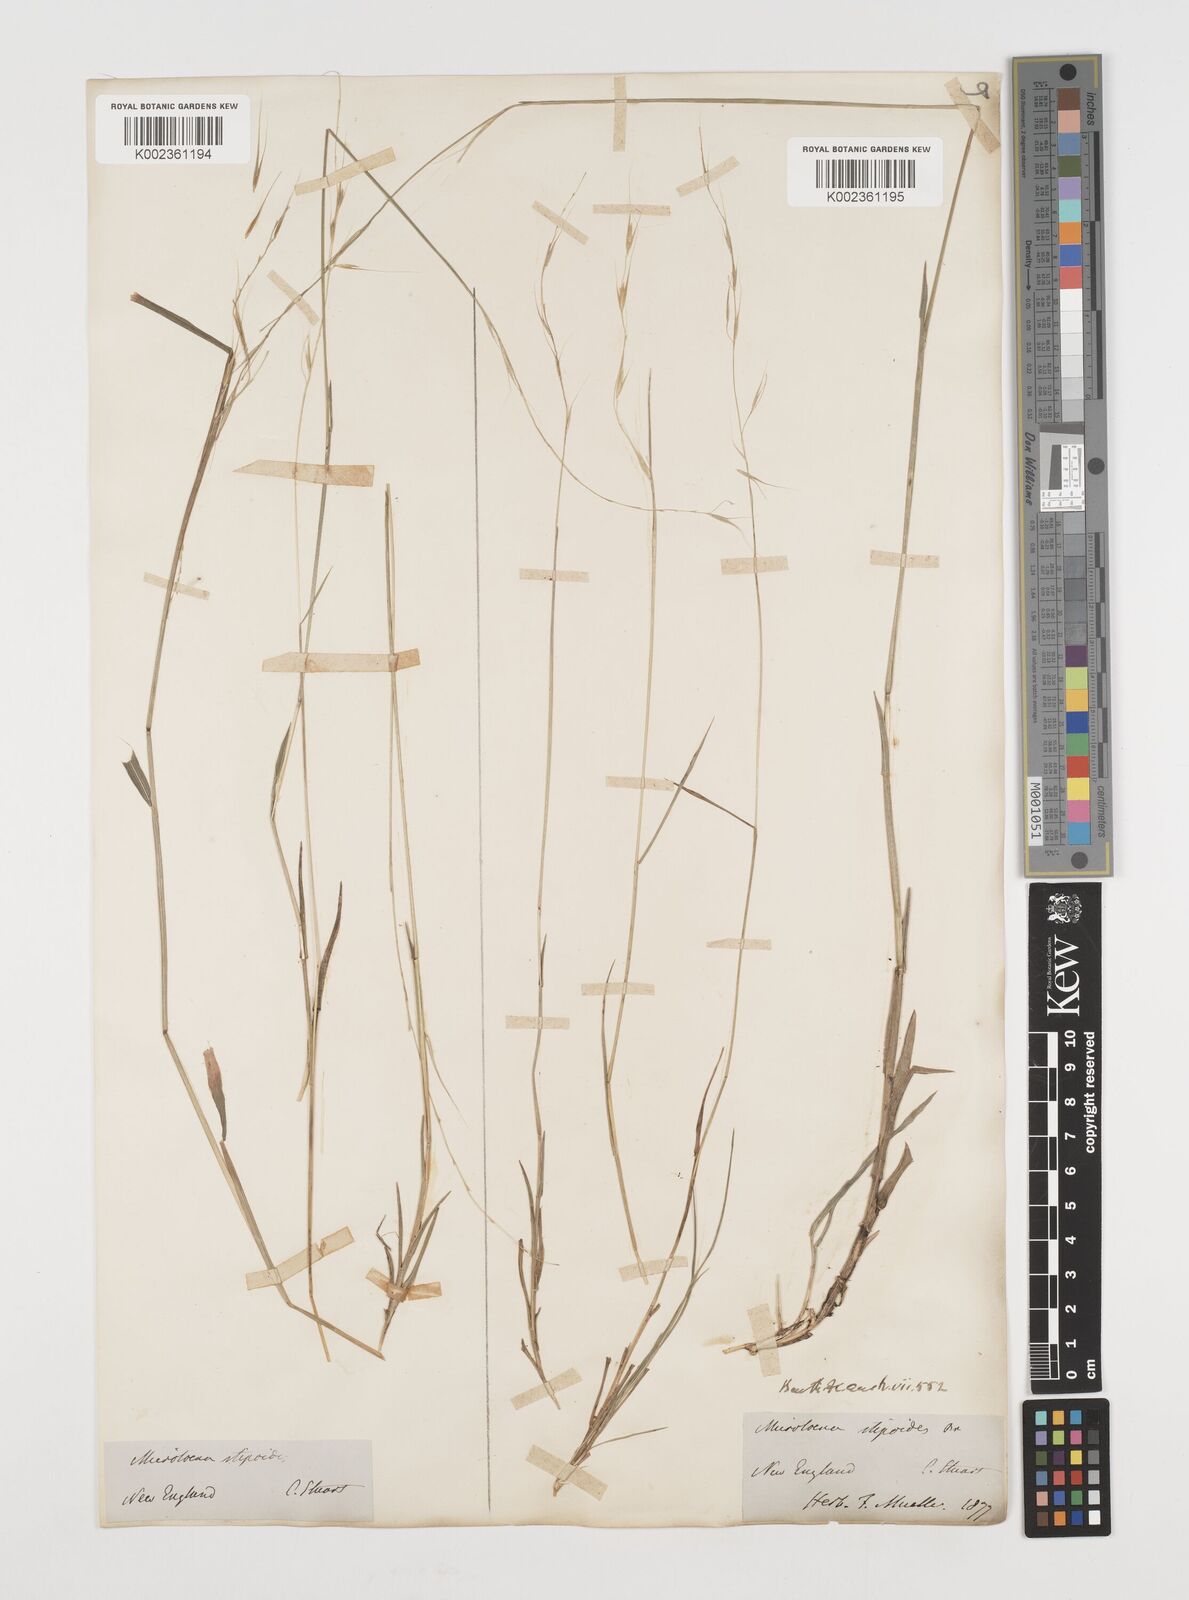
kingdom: Plantae
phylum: Tracheophyta
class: Liliopsida
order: Poales
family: Poaceae
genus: Microlaena
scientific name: Microlaena stipoides
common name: Meadow ricegrass
